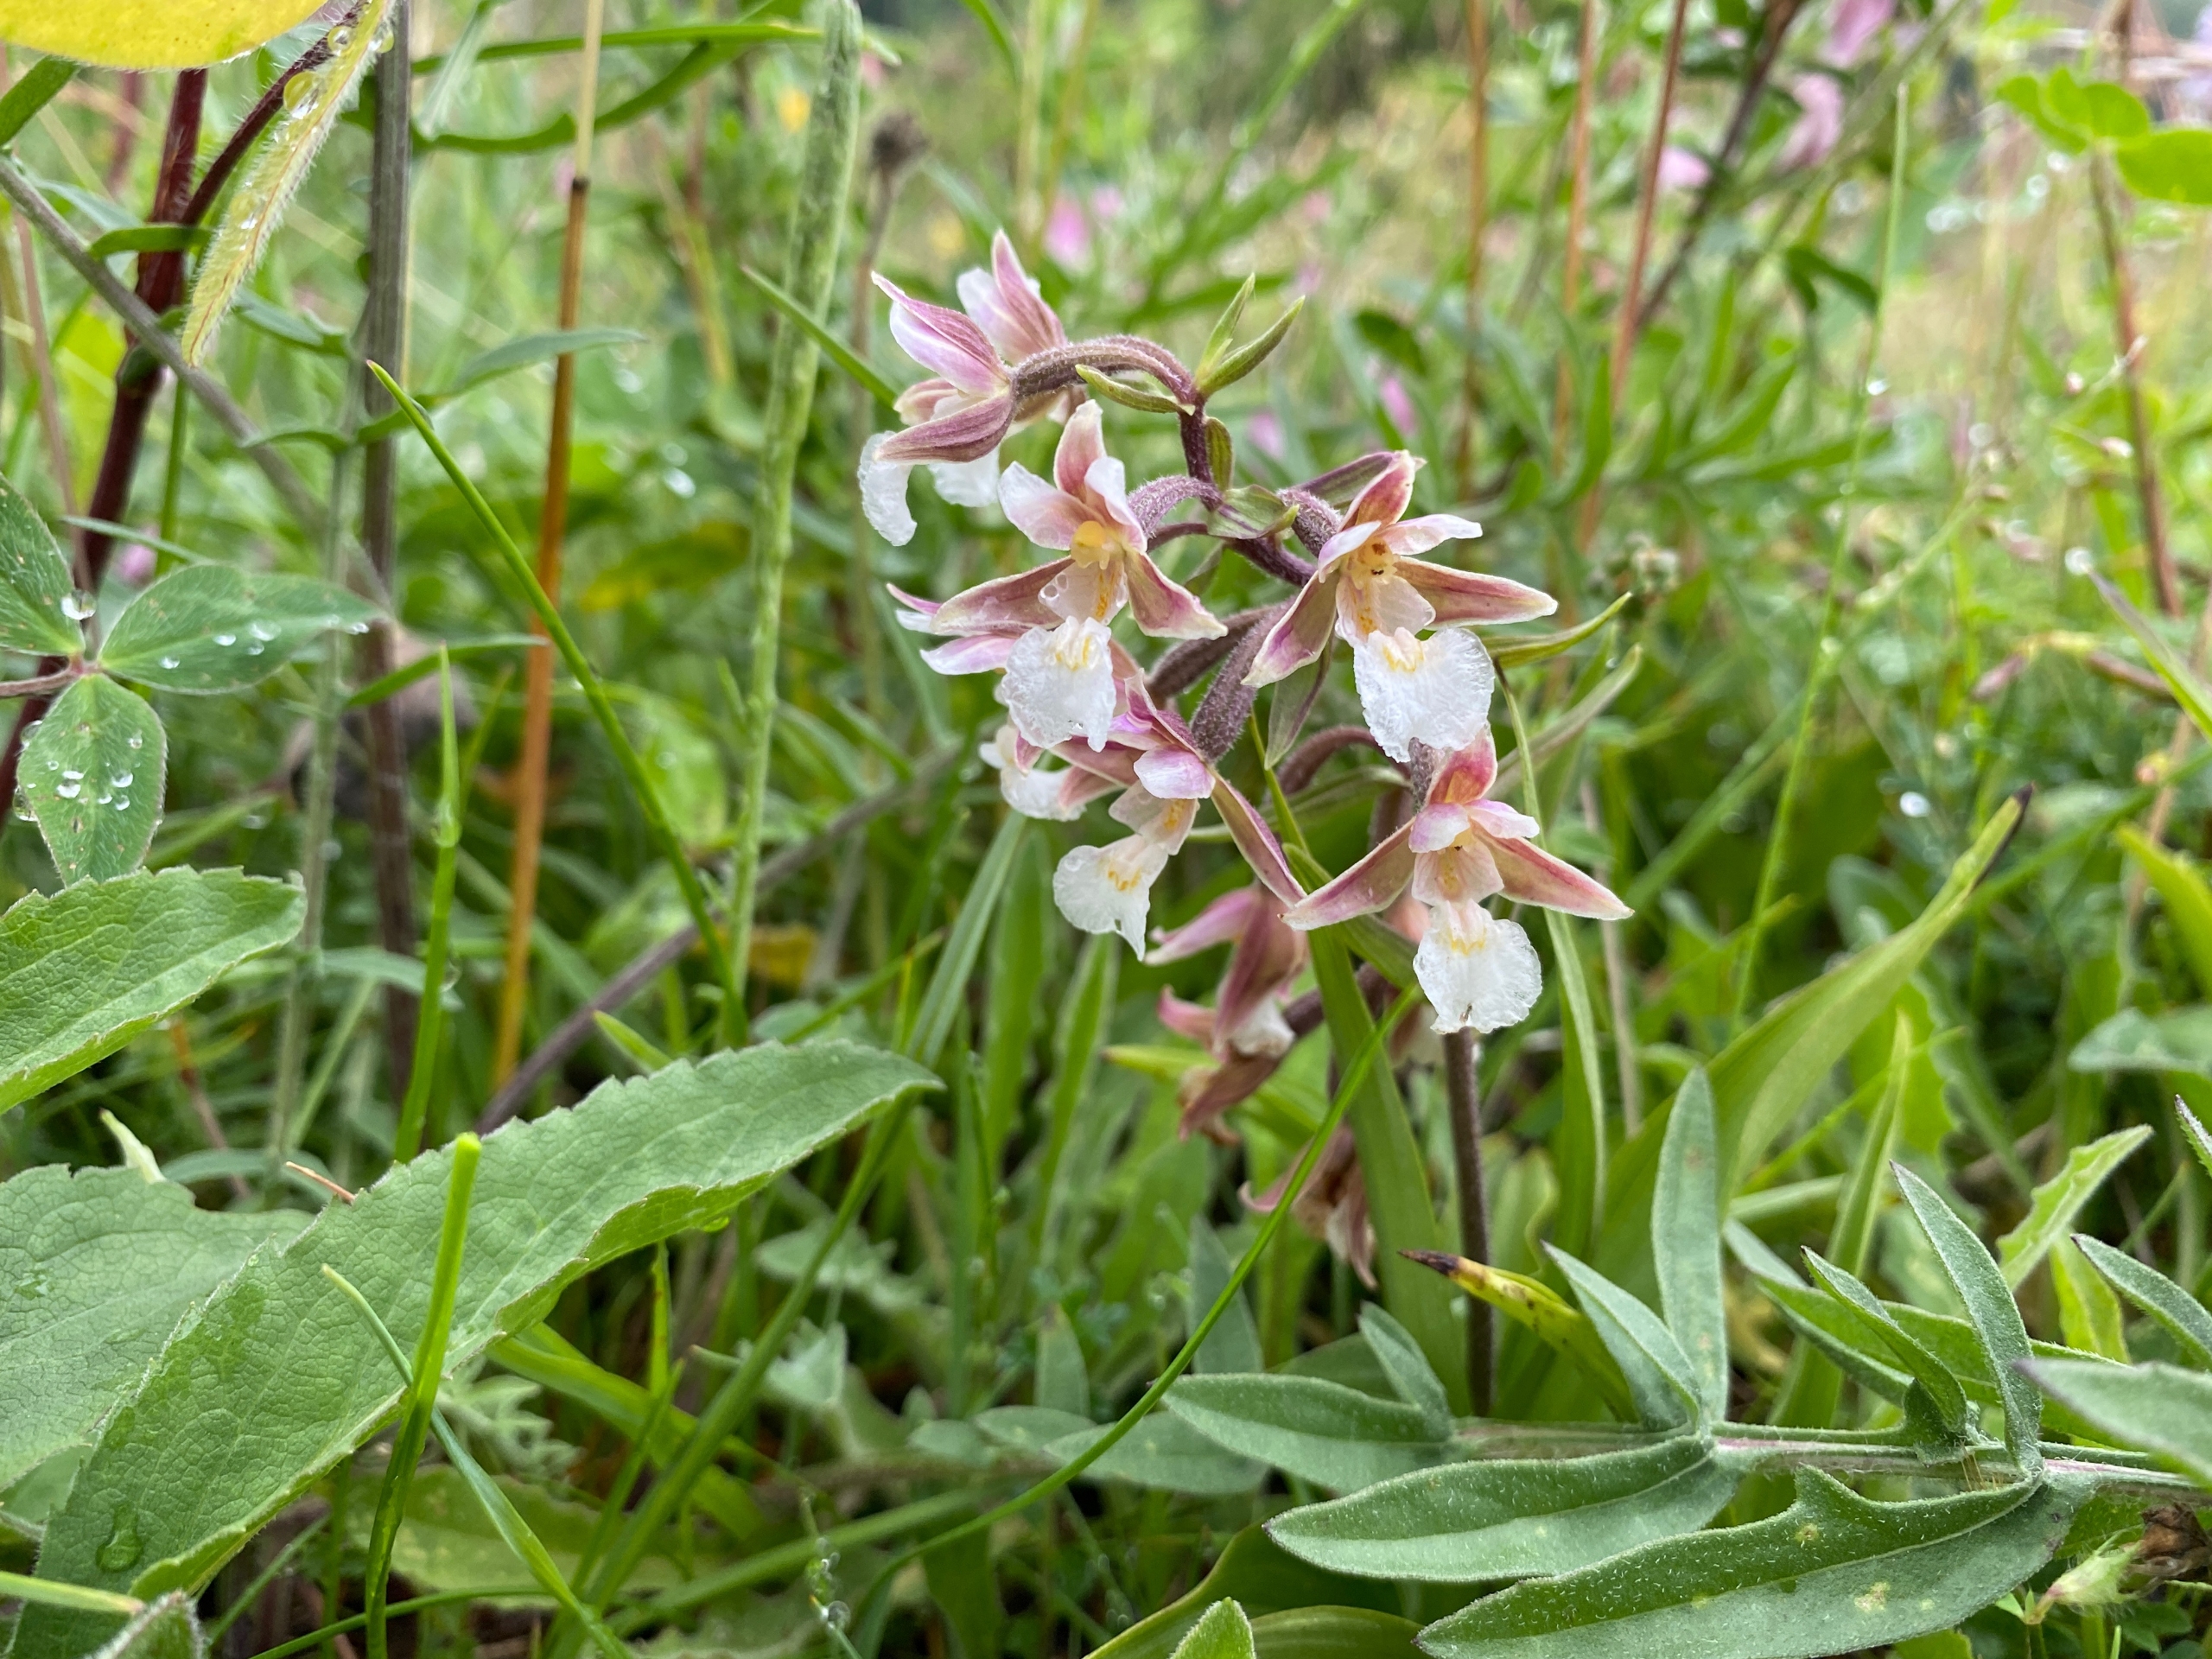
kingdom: Plantae
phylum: Tracheophyta
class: Liliopsida
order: Asparagales
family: Orchidaceae
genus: Epipactis
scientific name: Epipactis palustris
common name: Sump-hullæbe
